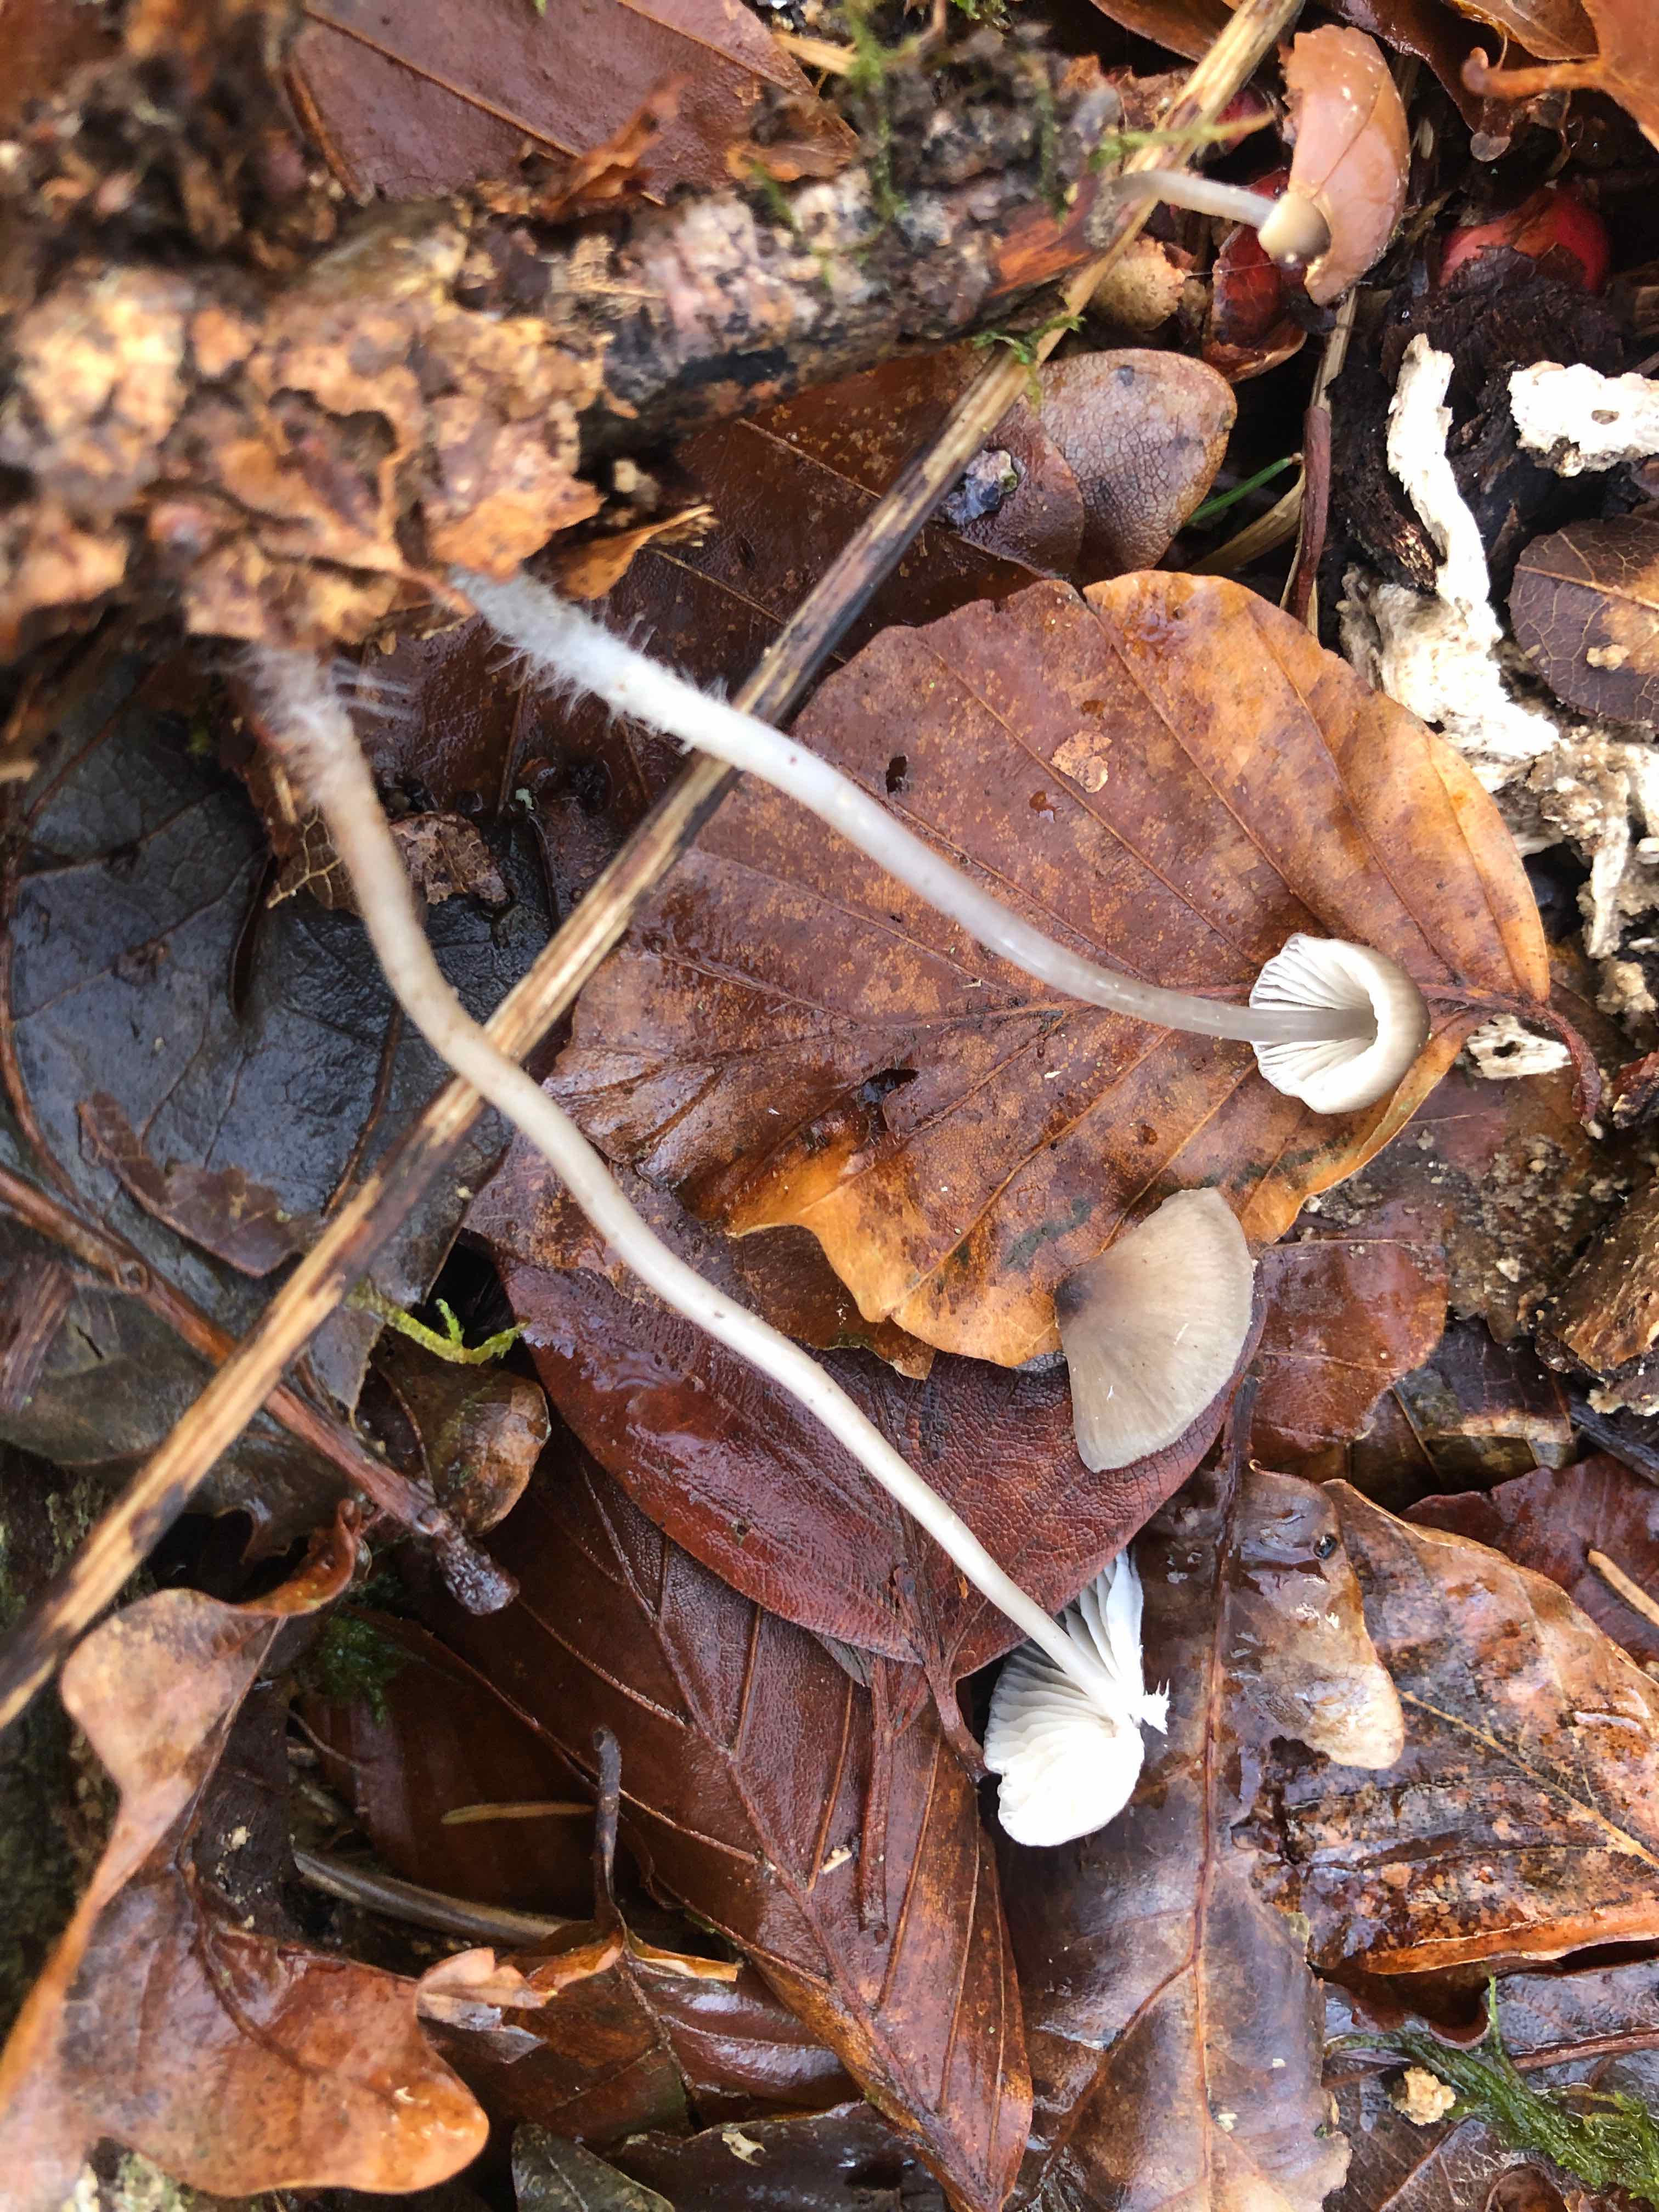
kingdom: Fungi
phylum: Basidiomycota
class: Agaricomycetes
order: Agaricales
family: Mycenaceae
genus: Mycena
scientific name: Mycena vitilis
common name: blankstokket huesvamp
